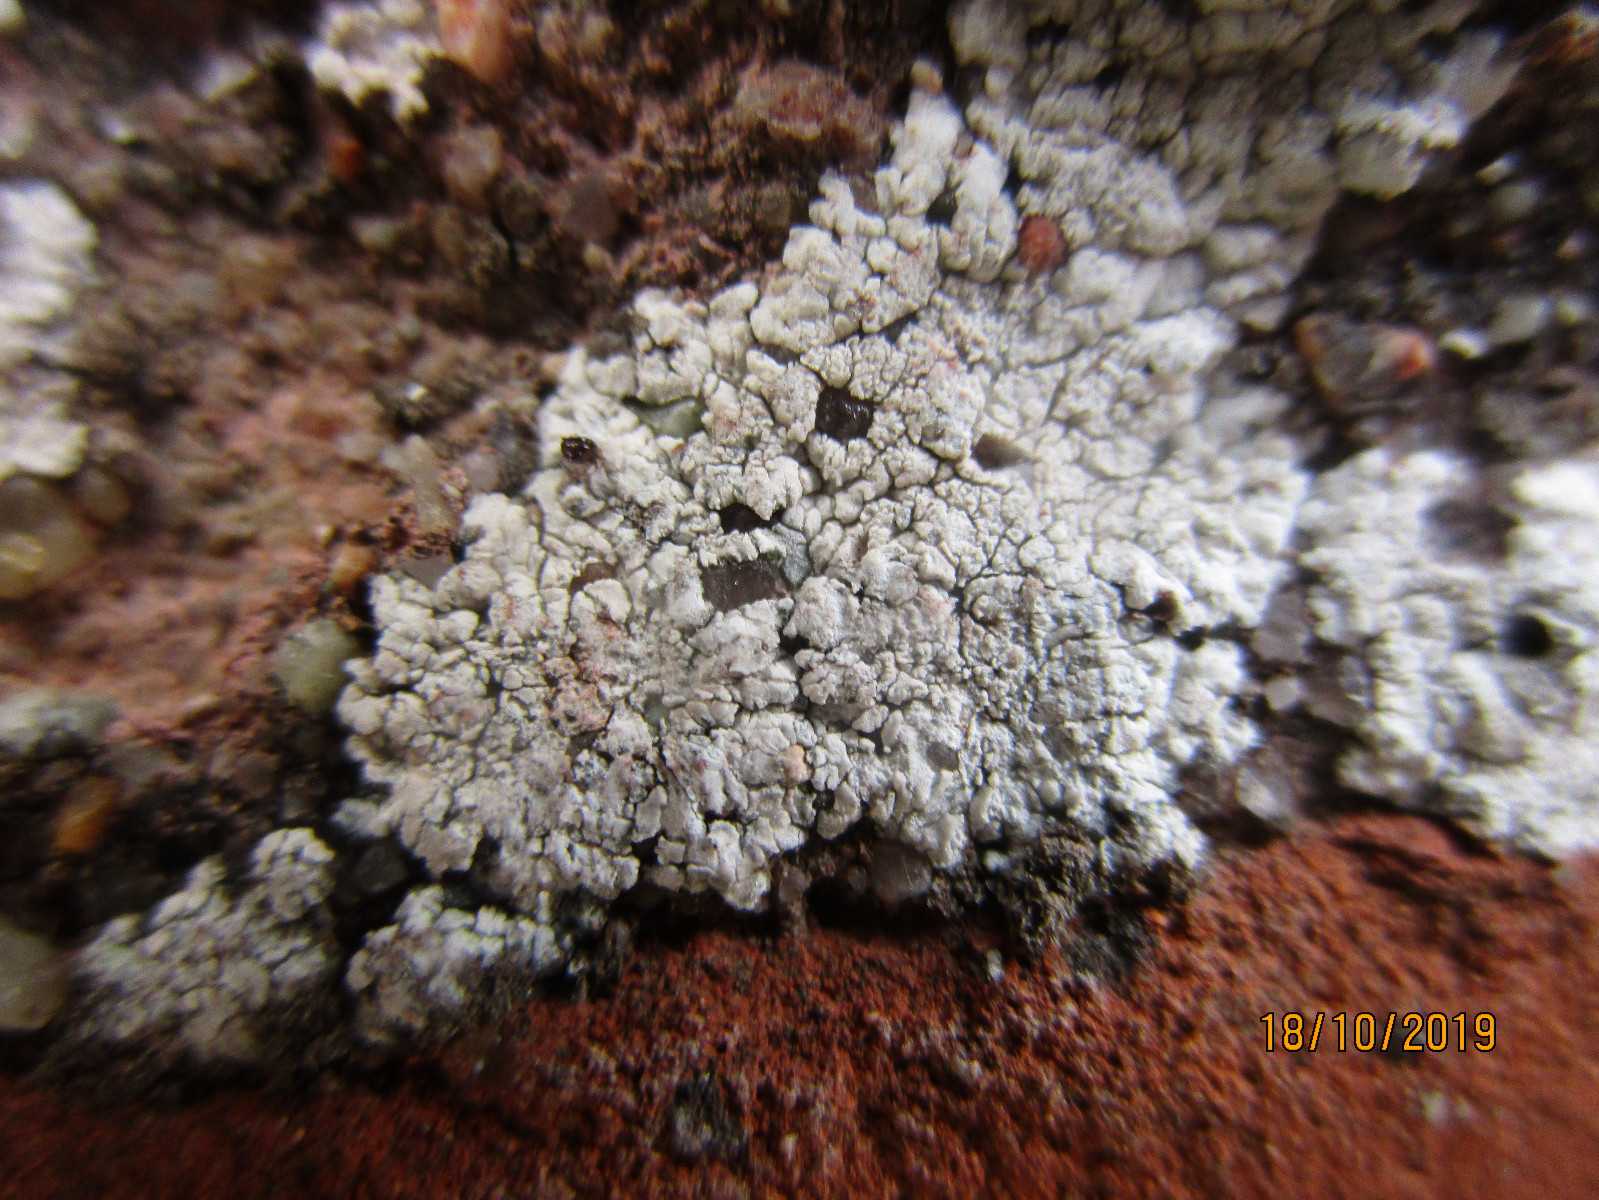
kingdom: Fungi
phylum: Ascomycota
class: Lecanoromycetes
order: Caliciales
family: Caliciaceae
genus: Diplotomma
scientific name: Diplotomma alboatrum
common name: sorthvid sortskivelav
